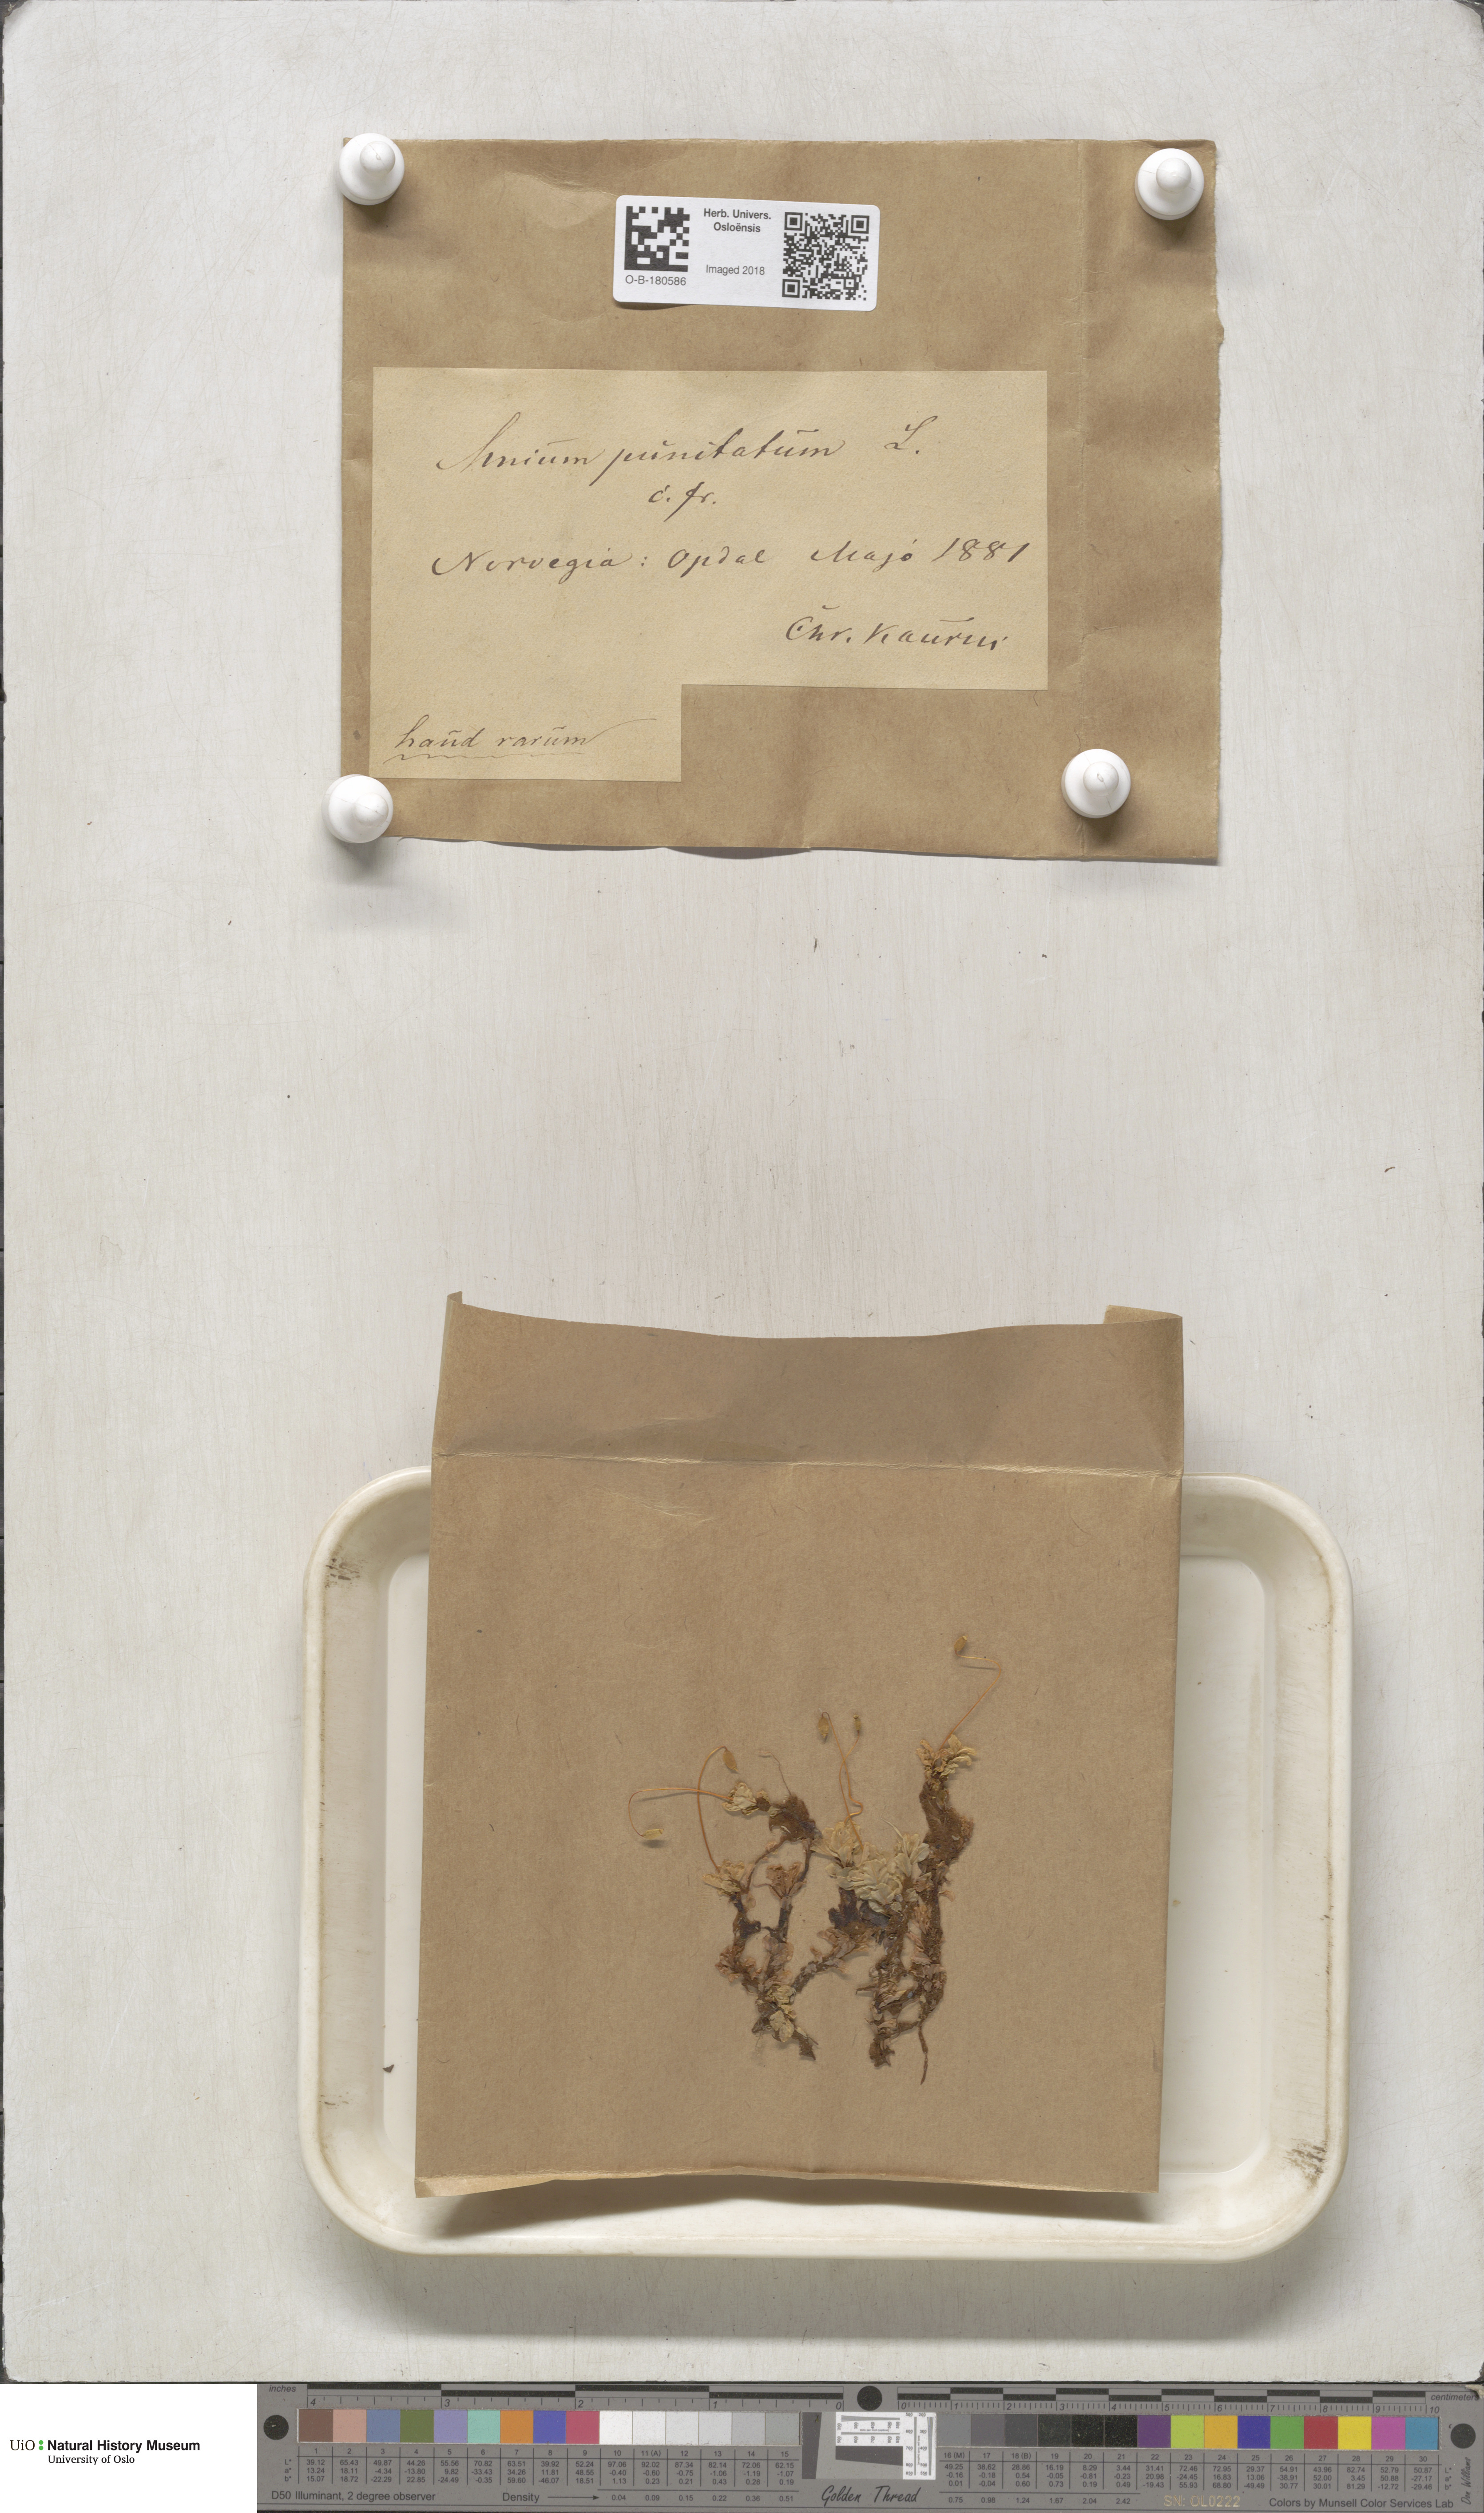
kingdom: Plantae
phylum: Bryophyta
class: Bryopsida
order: Bryales
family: Mniaceae
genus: Rhizomnium
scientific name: Rhizomnium punctatum
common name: Dotted leafy moss
